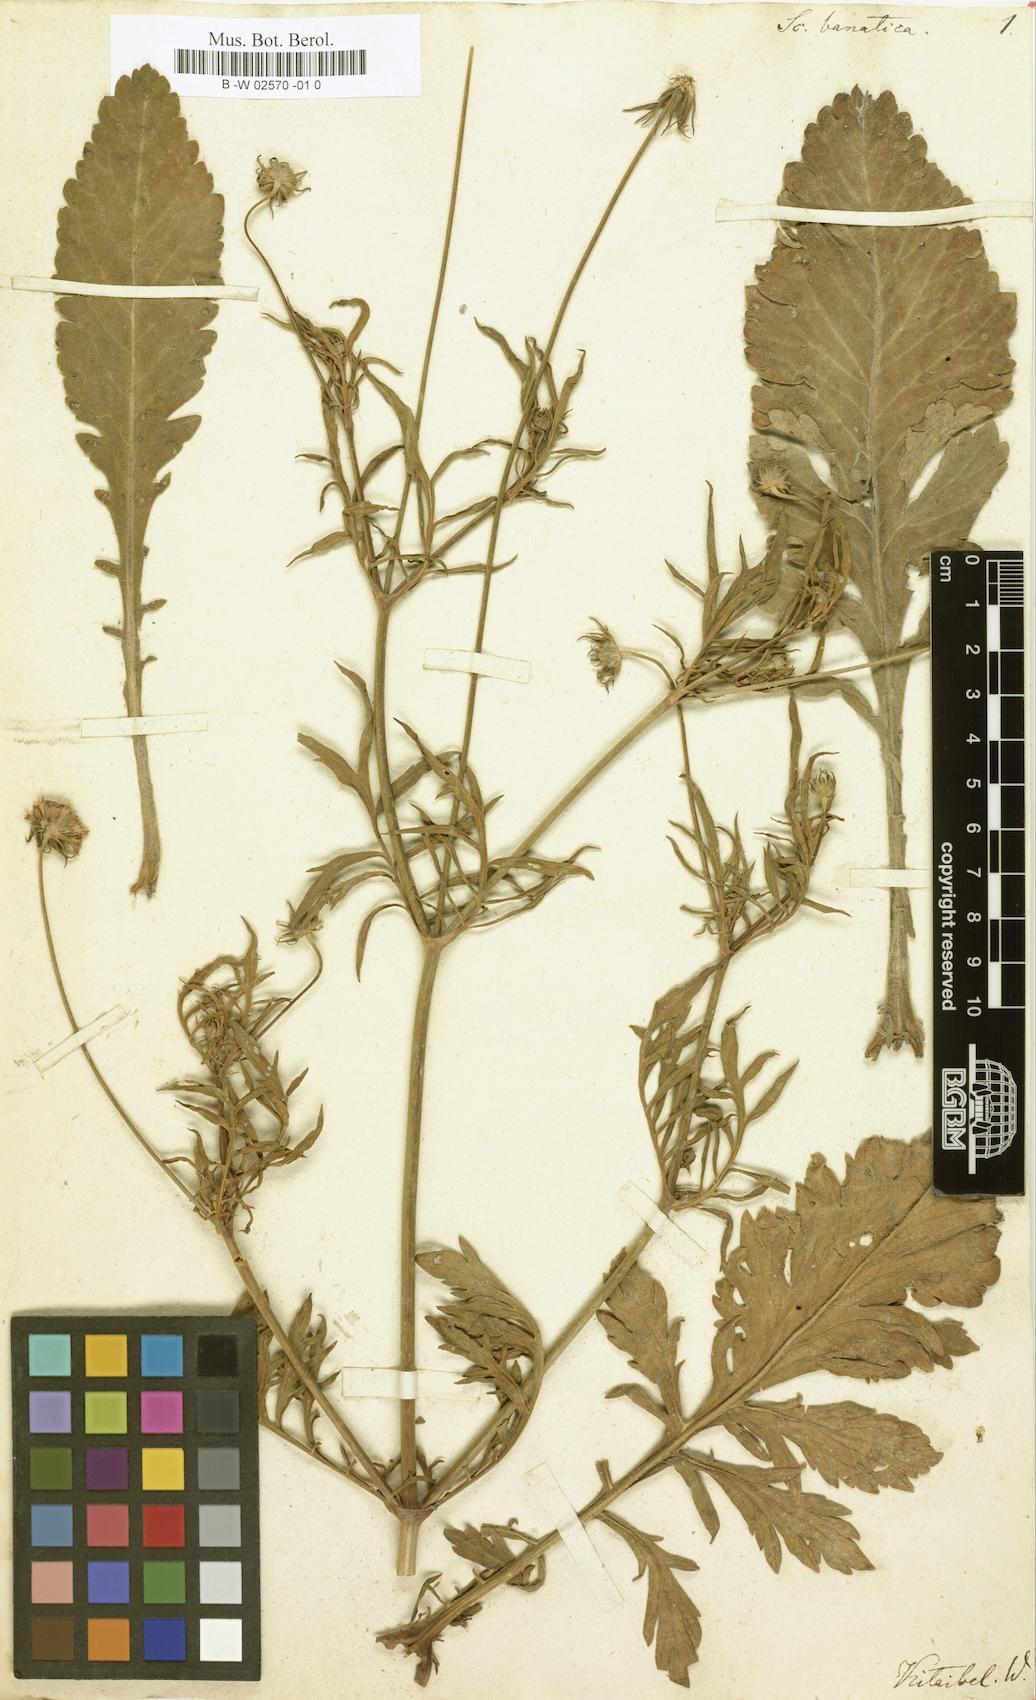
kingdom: Plantae
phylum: Tracheophyta
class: Magnoliopsida
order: Dipsacales
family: Caprifoliaceae
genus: Scabiosa
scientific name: Scabiosa columbaria
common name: Small scabious
